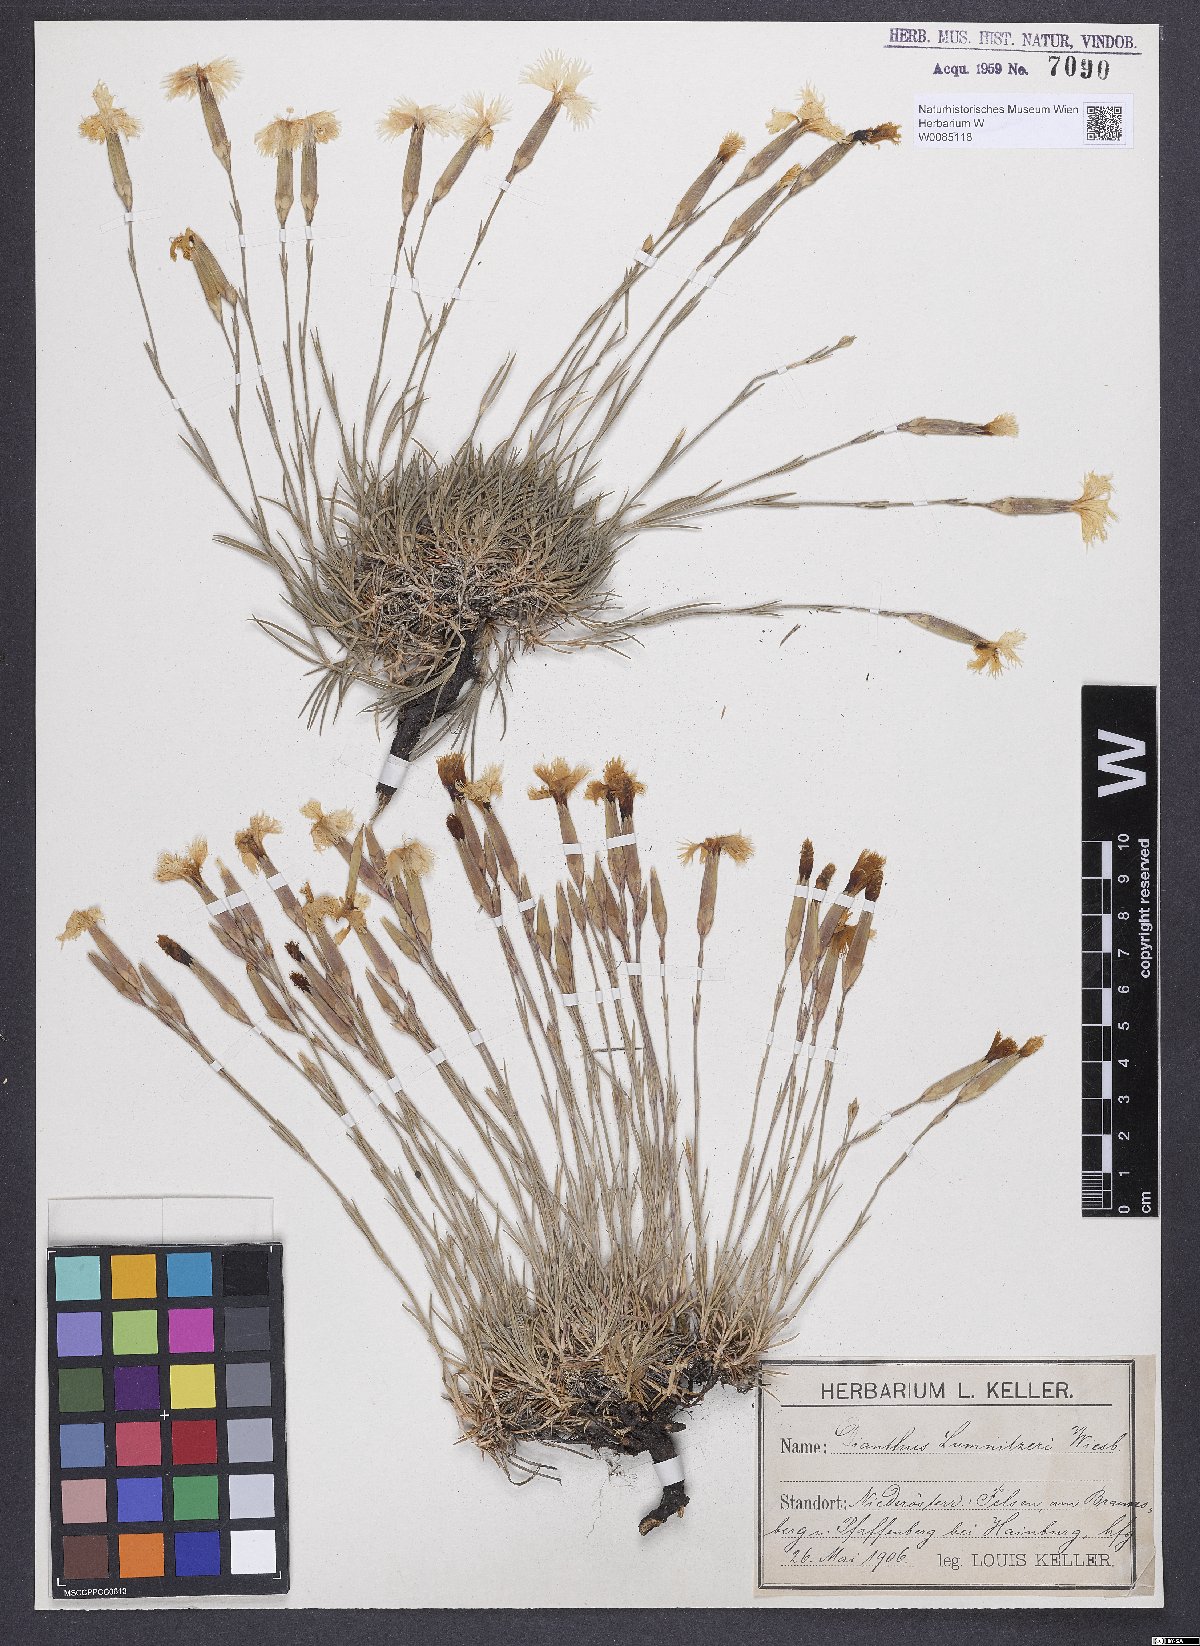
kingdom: Plantae
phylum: Tracheophyta
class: Magnoliopsida
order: Caryophyllales
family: Caryophyllaceae
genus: Dianthus
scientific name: Dianthus praecox
